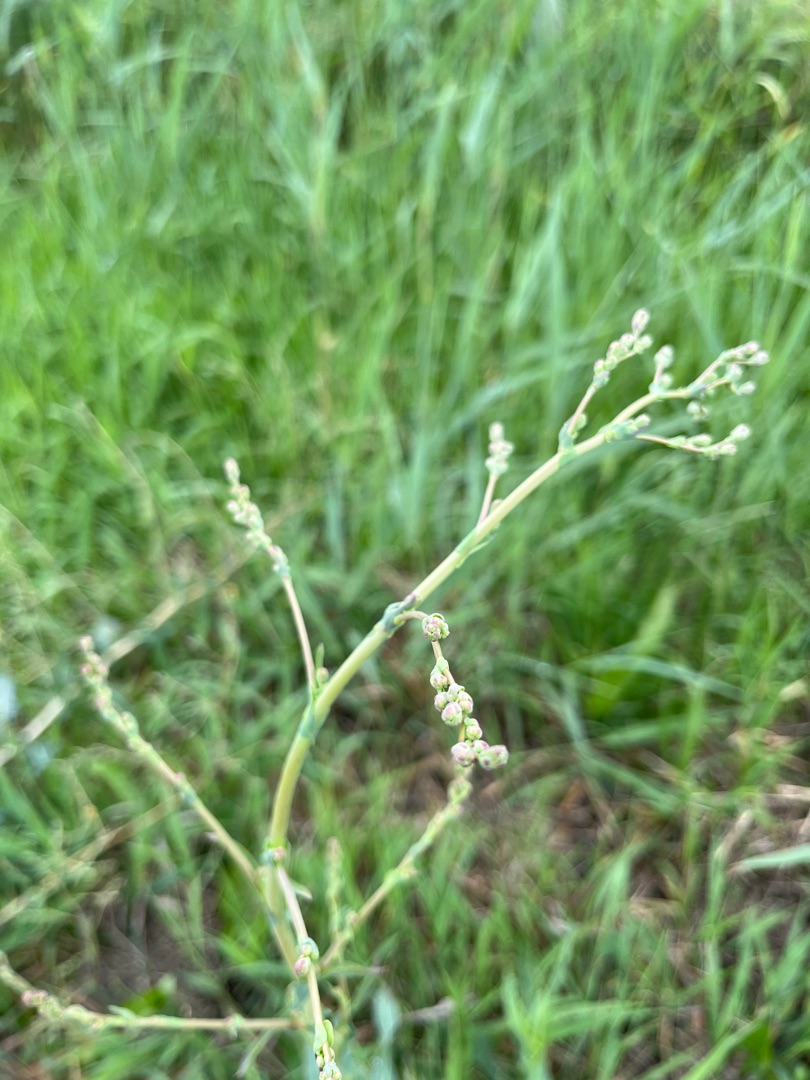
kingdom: Plantae
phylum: Tracheophyta
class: Magnoliopsida
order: Asterales
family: Asteraceae
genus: Lactuca
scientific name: Lactuca serriola
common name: Tornet salat
